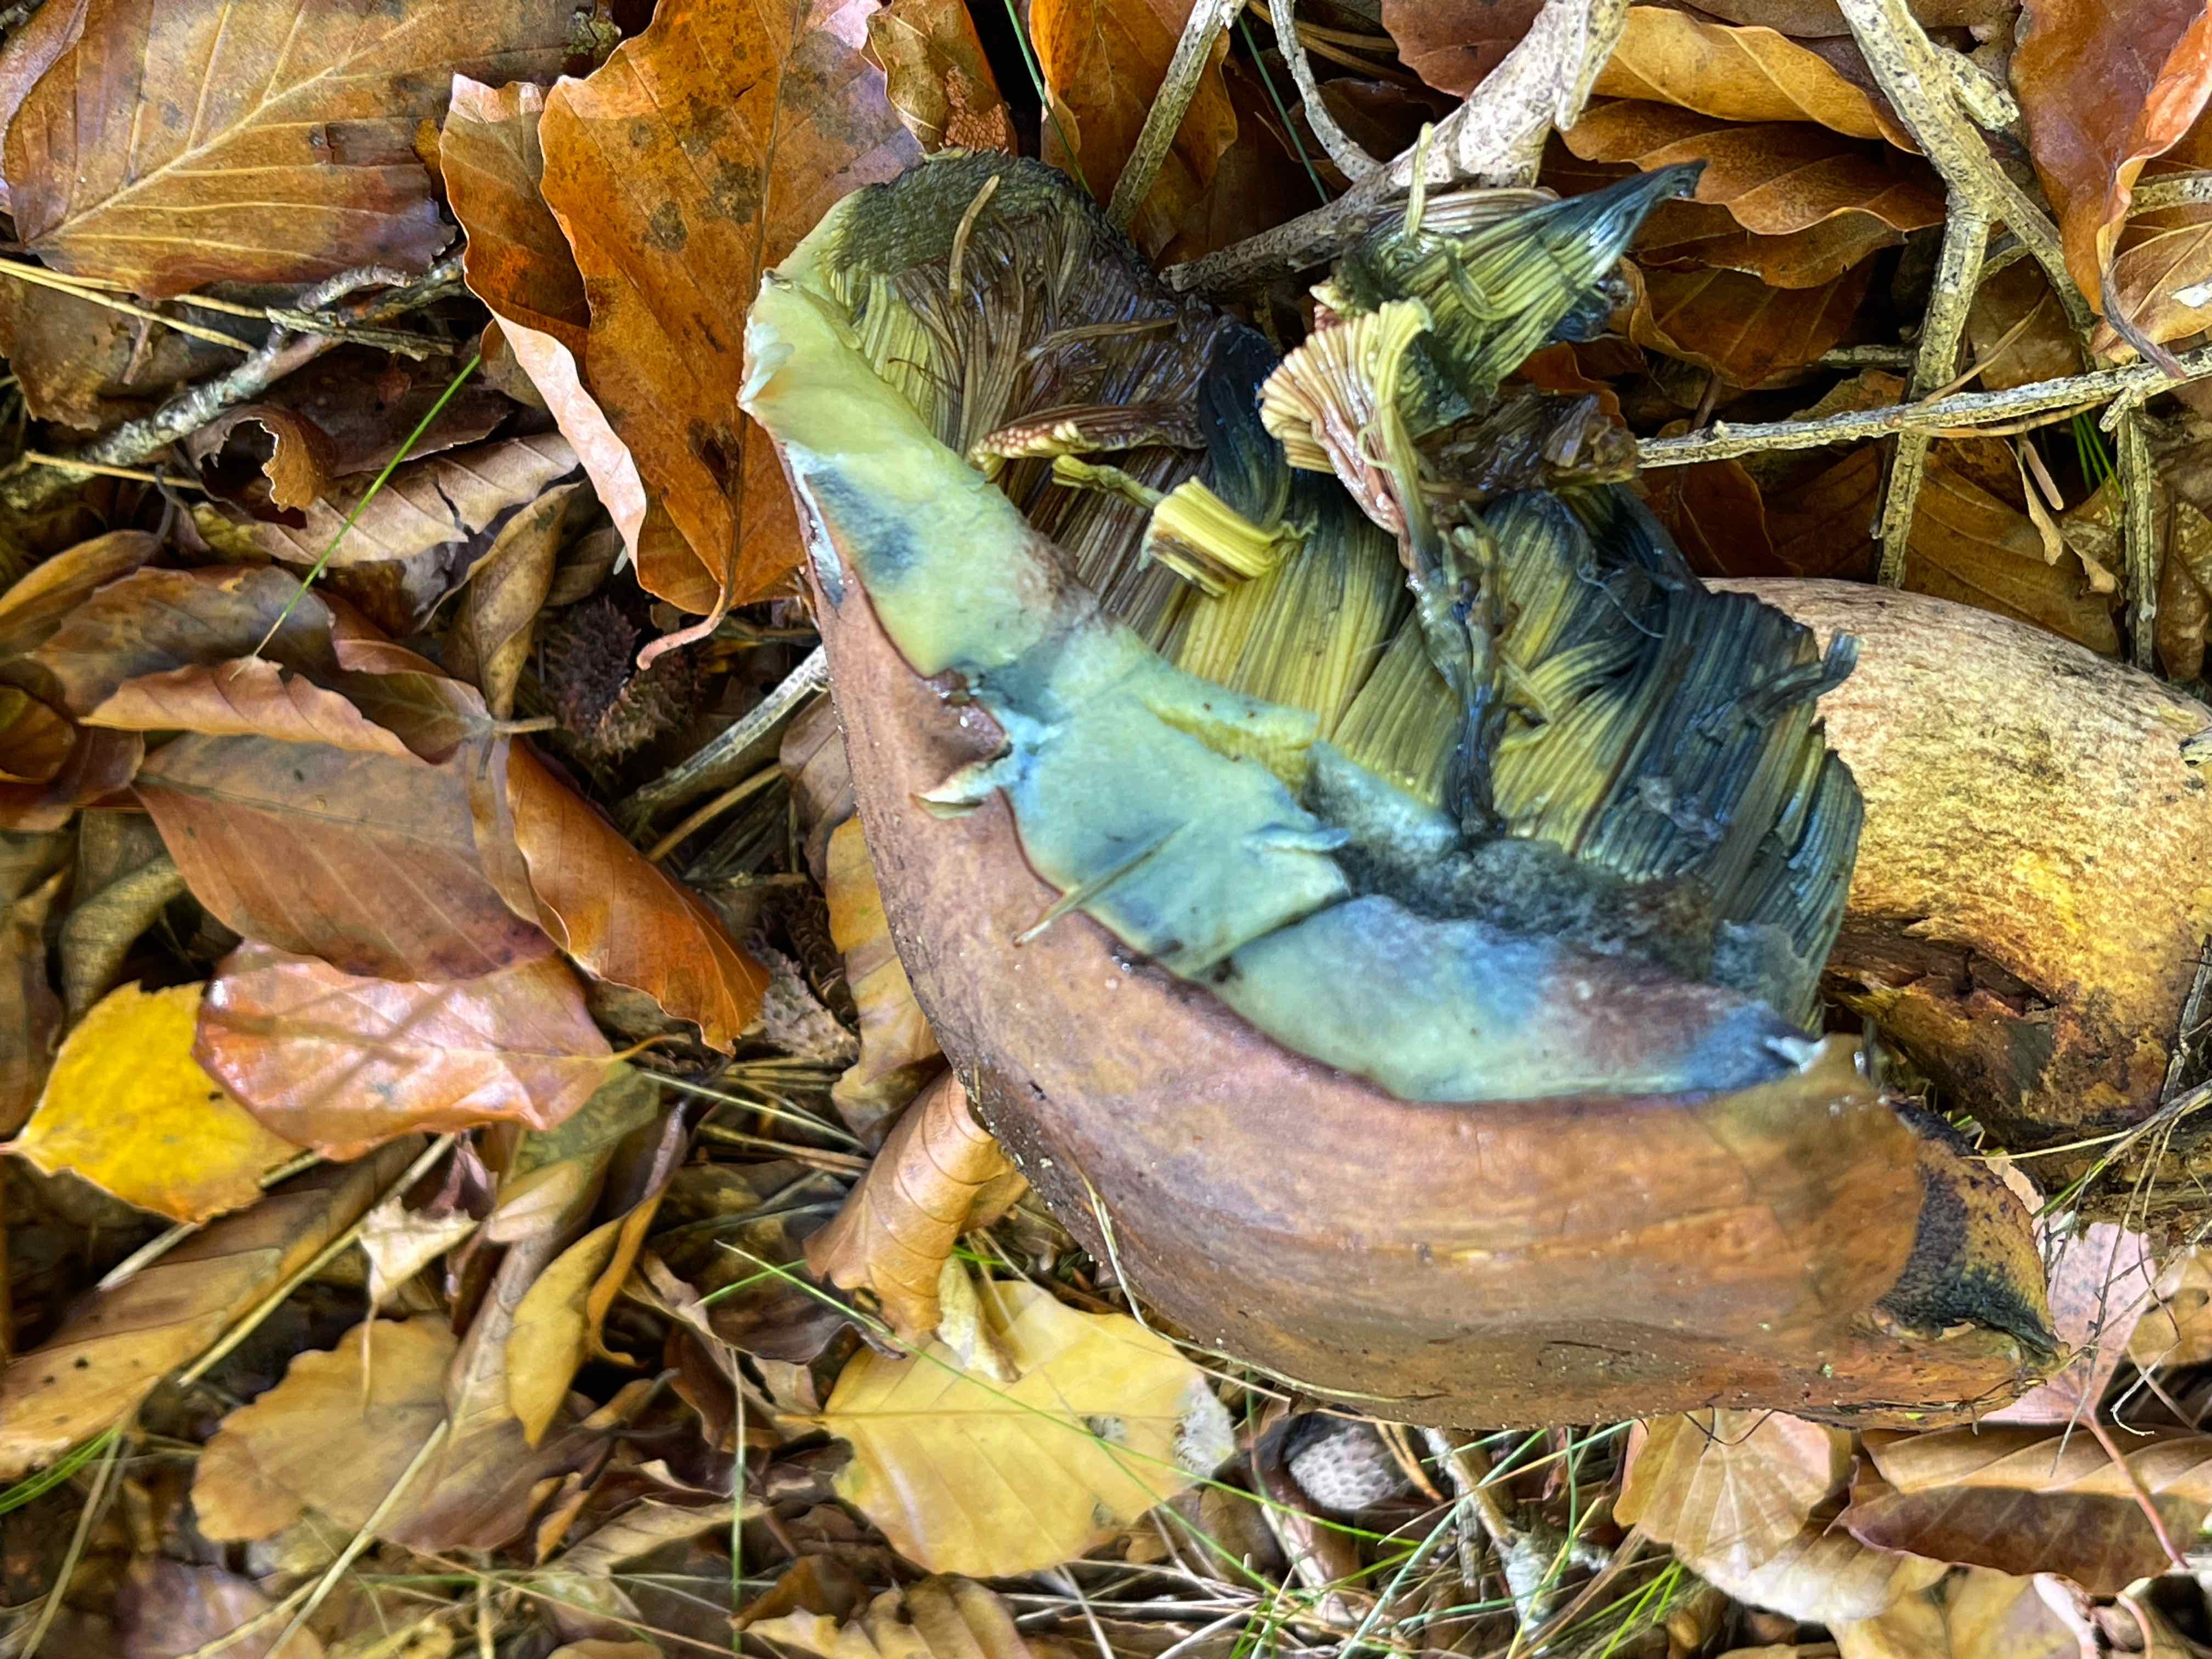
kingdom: Fungi
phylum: Basidiomycota
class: Agaricomycetes
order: Boletales
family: Boletaceae
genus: Neoboletus
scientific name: Neoboletus erythropus
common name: punktstokket indigorørhat
